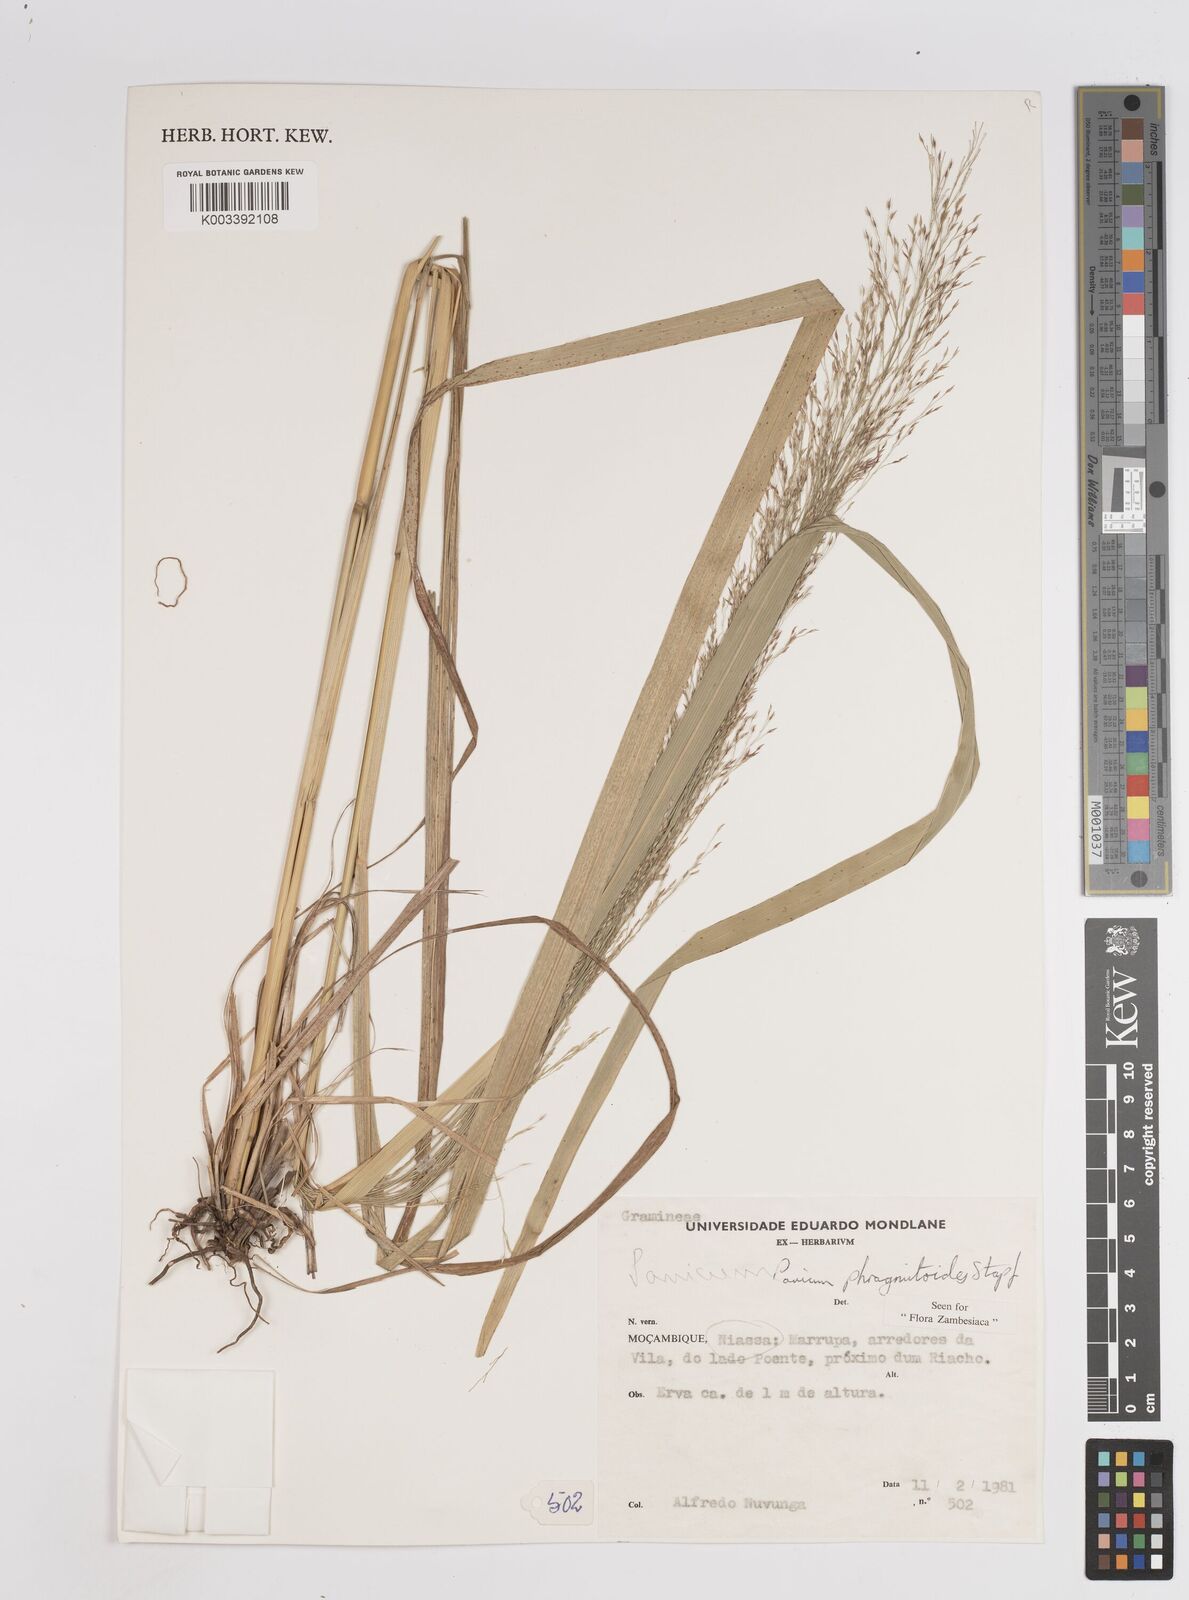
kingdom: Plantae
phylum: Tracheophyta
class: Liliopsida
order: Poales
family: Poaceae
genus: Panicum
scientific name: Panicum phragmitoides
